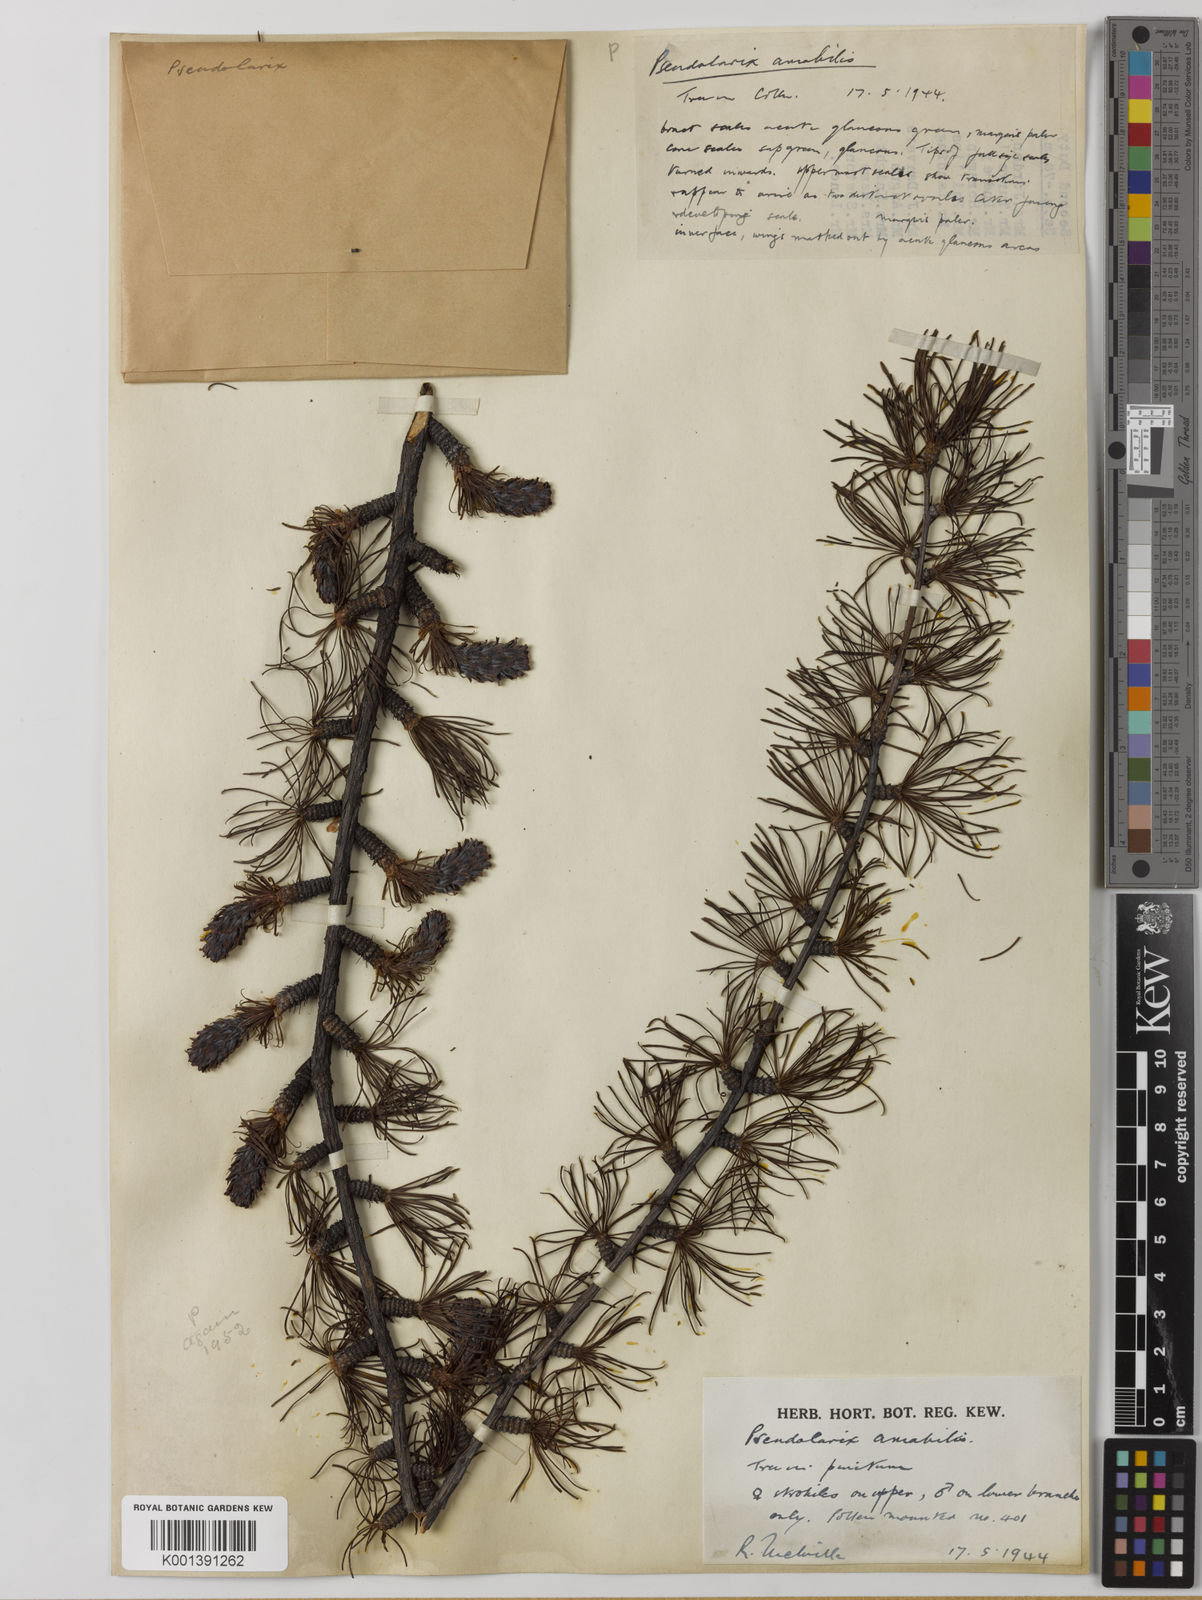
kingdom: Plantae
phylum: Tracheophyta
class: Pinopsida
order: Pinales
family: Pinaceae
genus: Pseudolarix
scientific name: Pseudolarix amabilis
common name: Chinese golden larch
